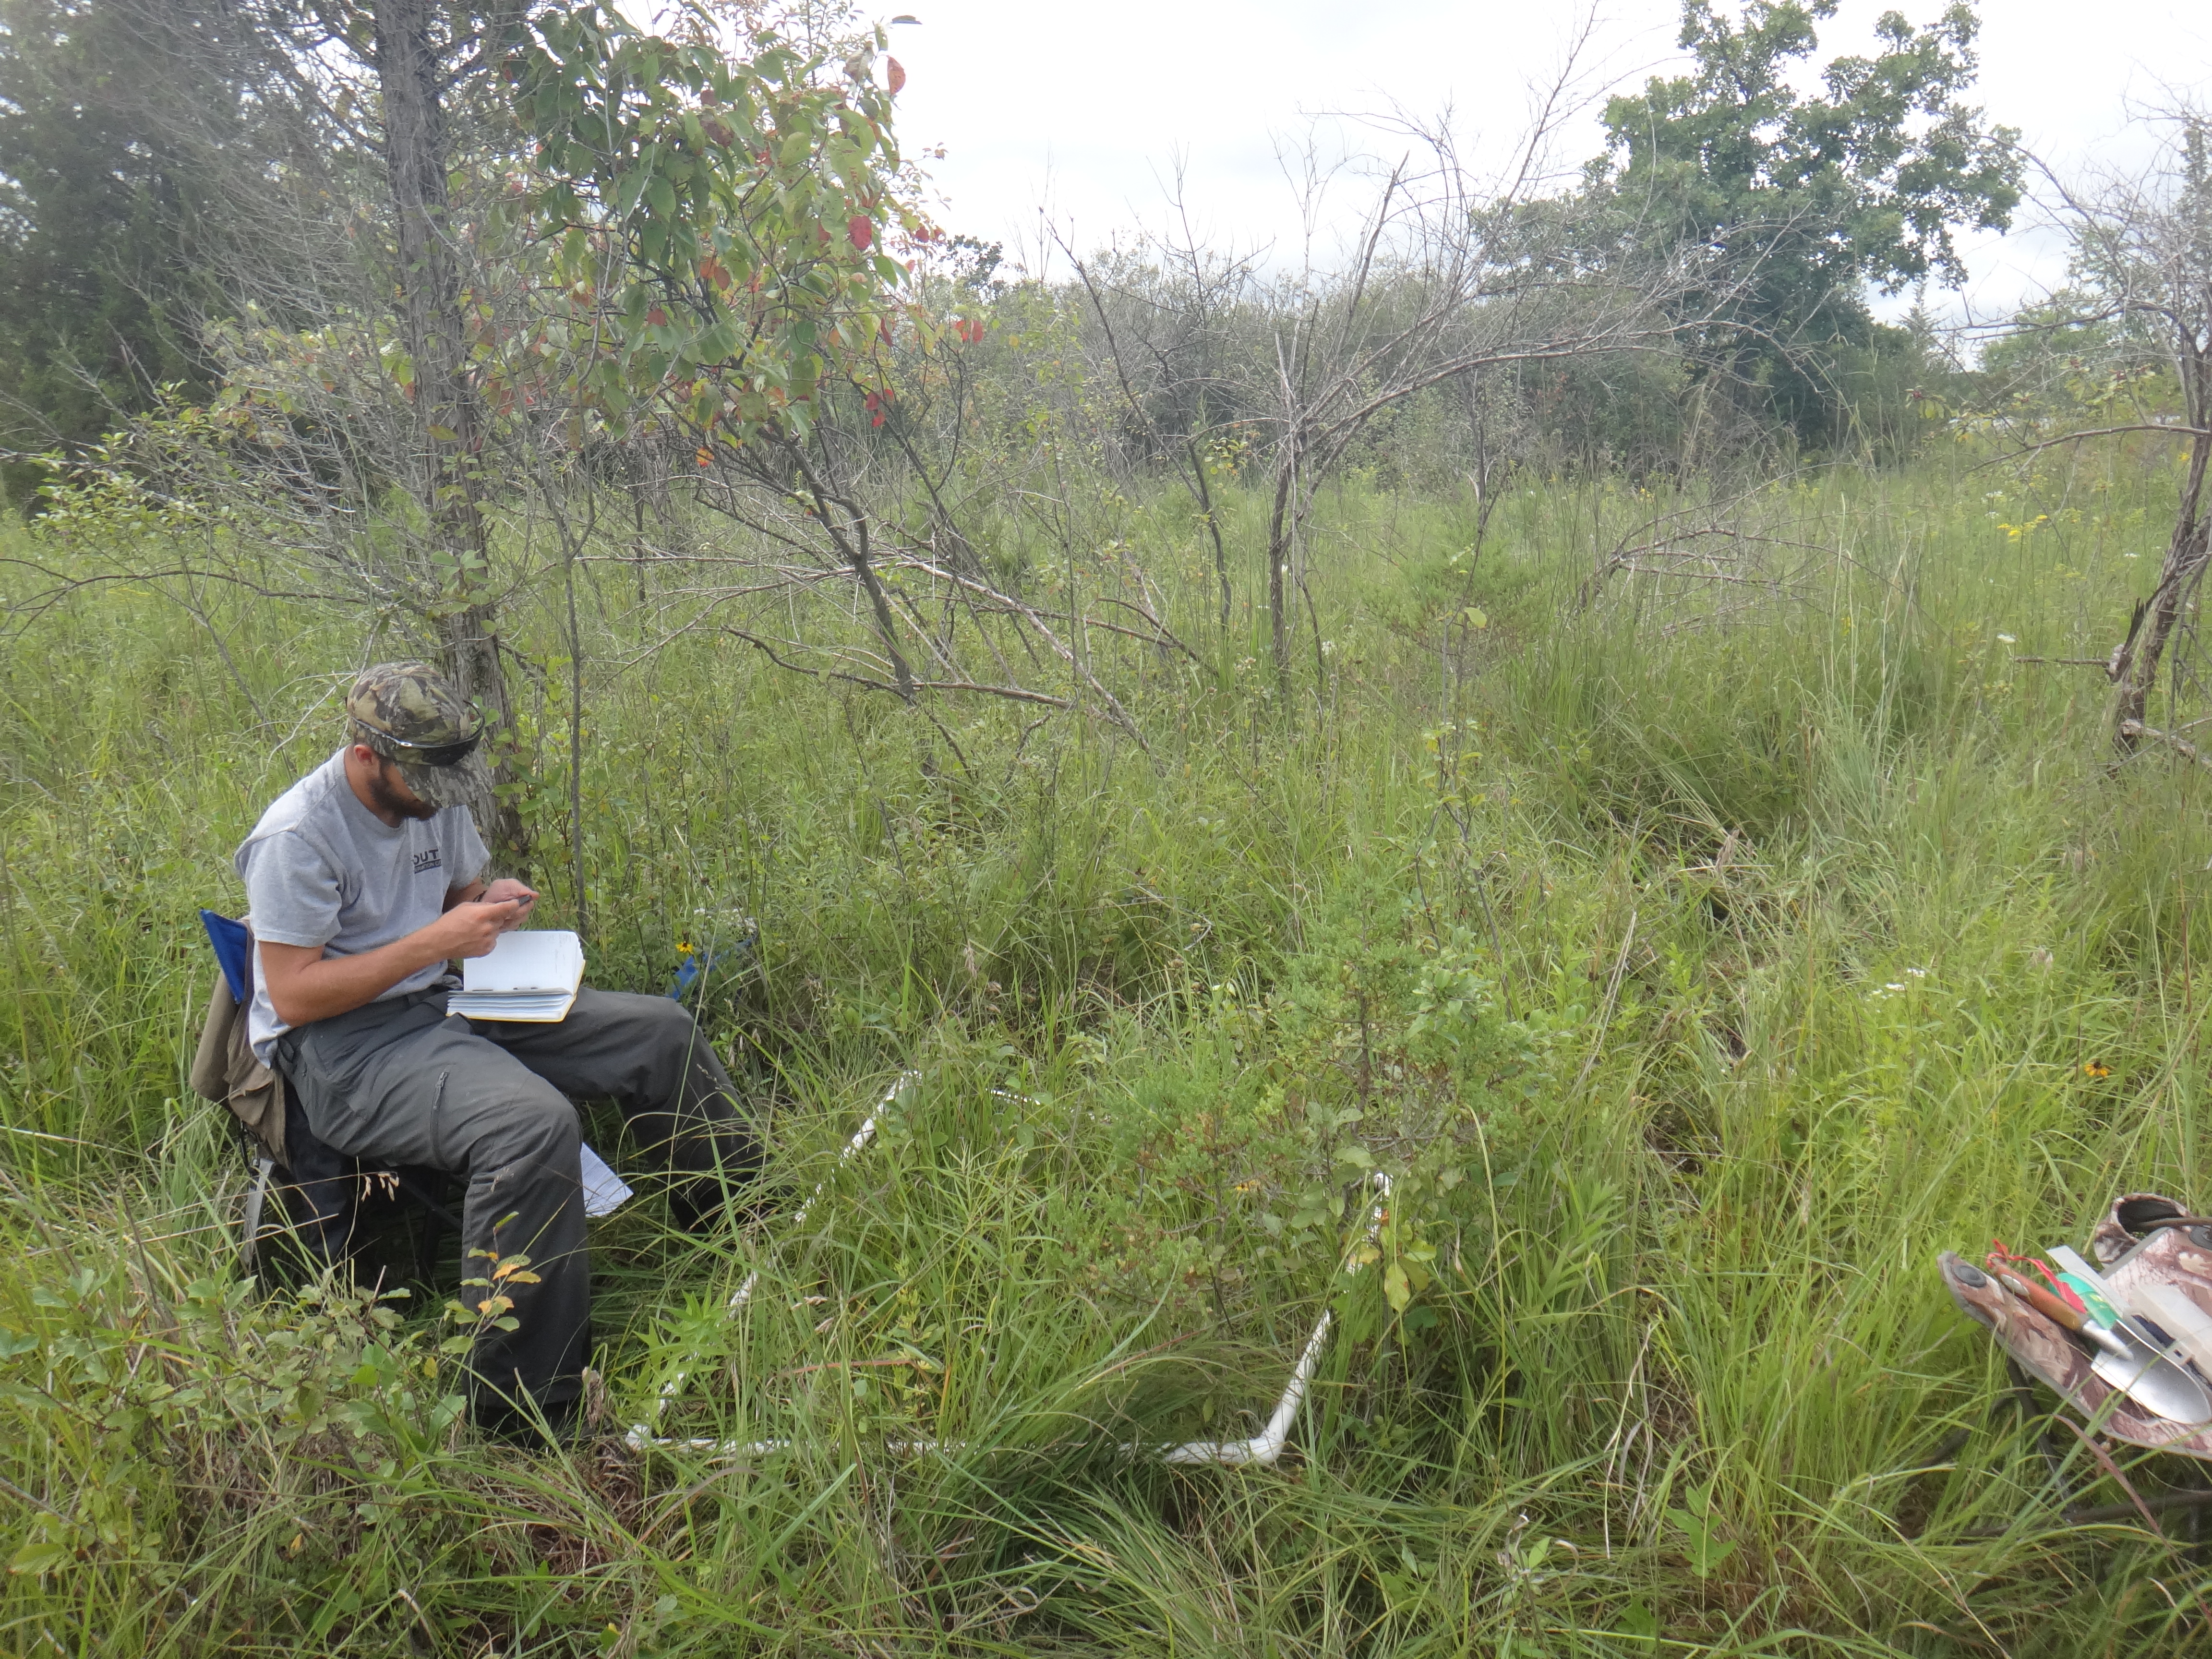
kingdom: Plantae
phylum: Tracheophyta
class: Liliopsida
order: Poales
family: Poaceae
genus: Elymus
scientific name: Elymus repens
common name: Quackgrass
